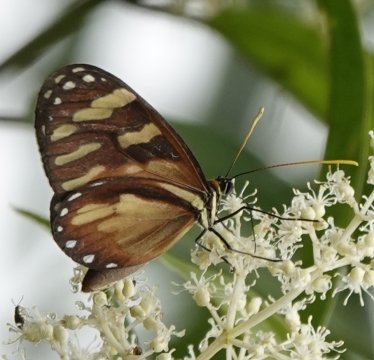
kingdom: Animalia
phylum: Arthropoda
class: Insecta
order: Lepidoptera
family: Nymphalidae
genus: Ithomia
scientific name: Ithomia heraldica
